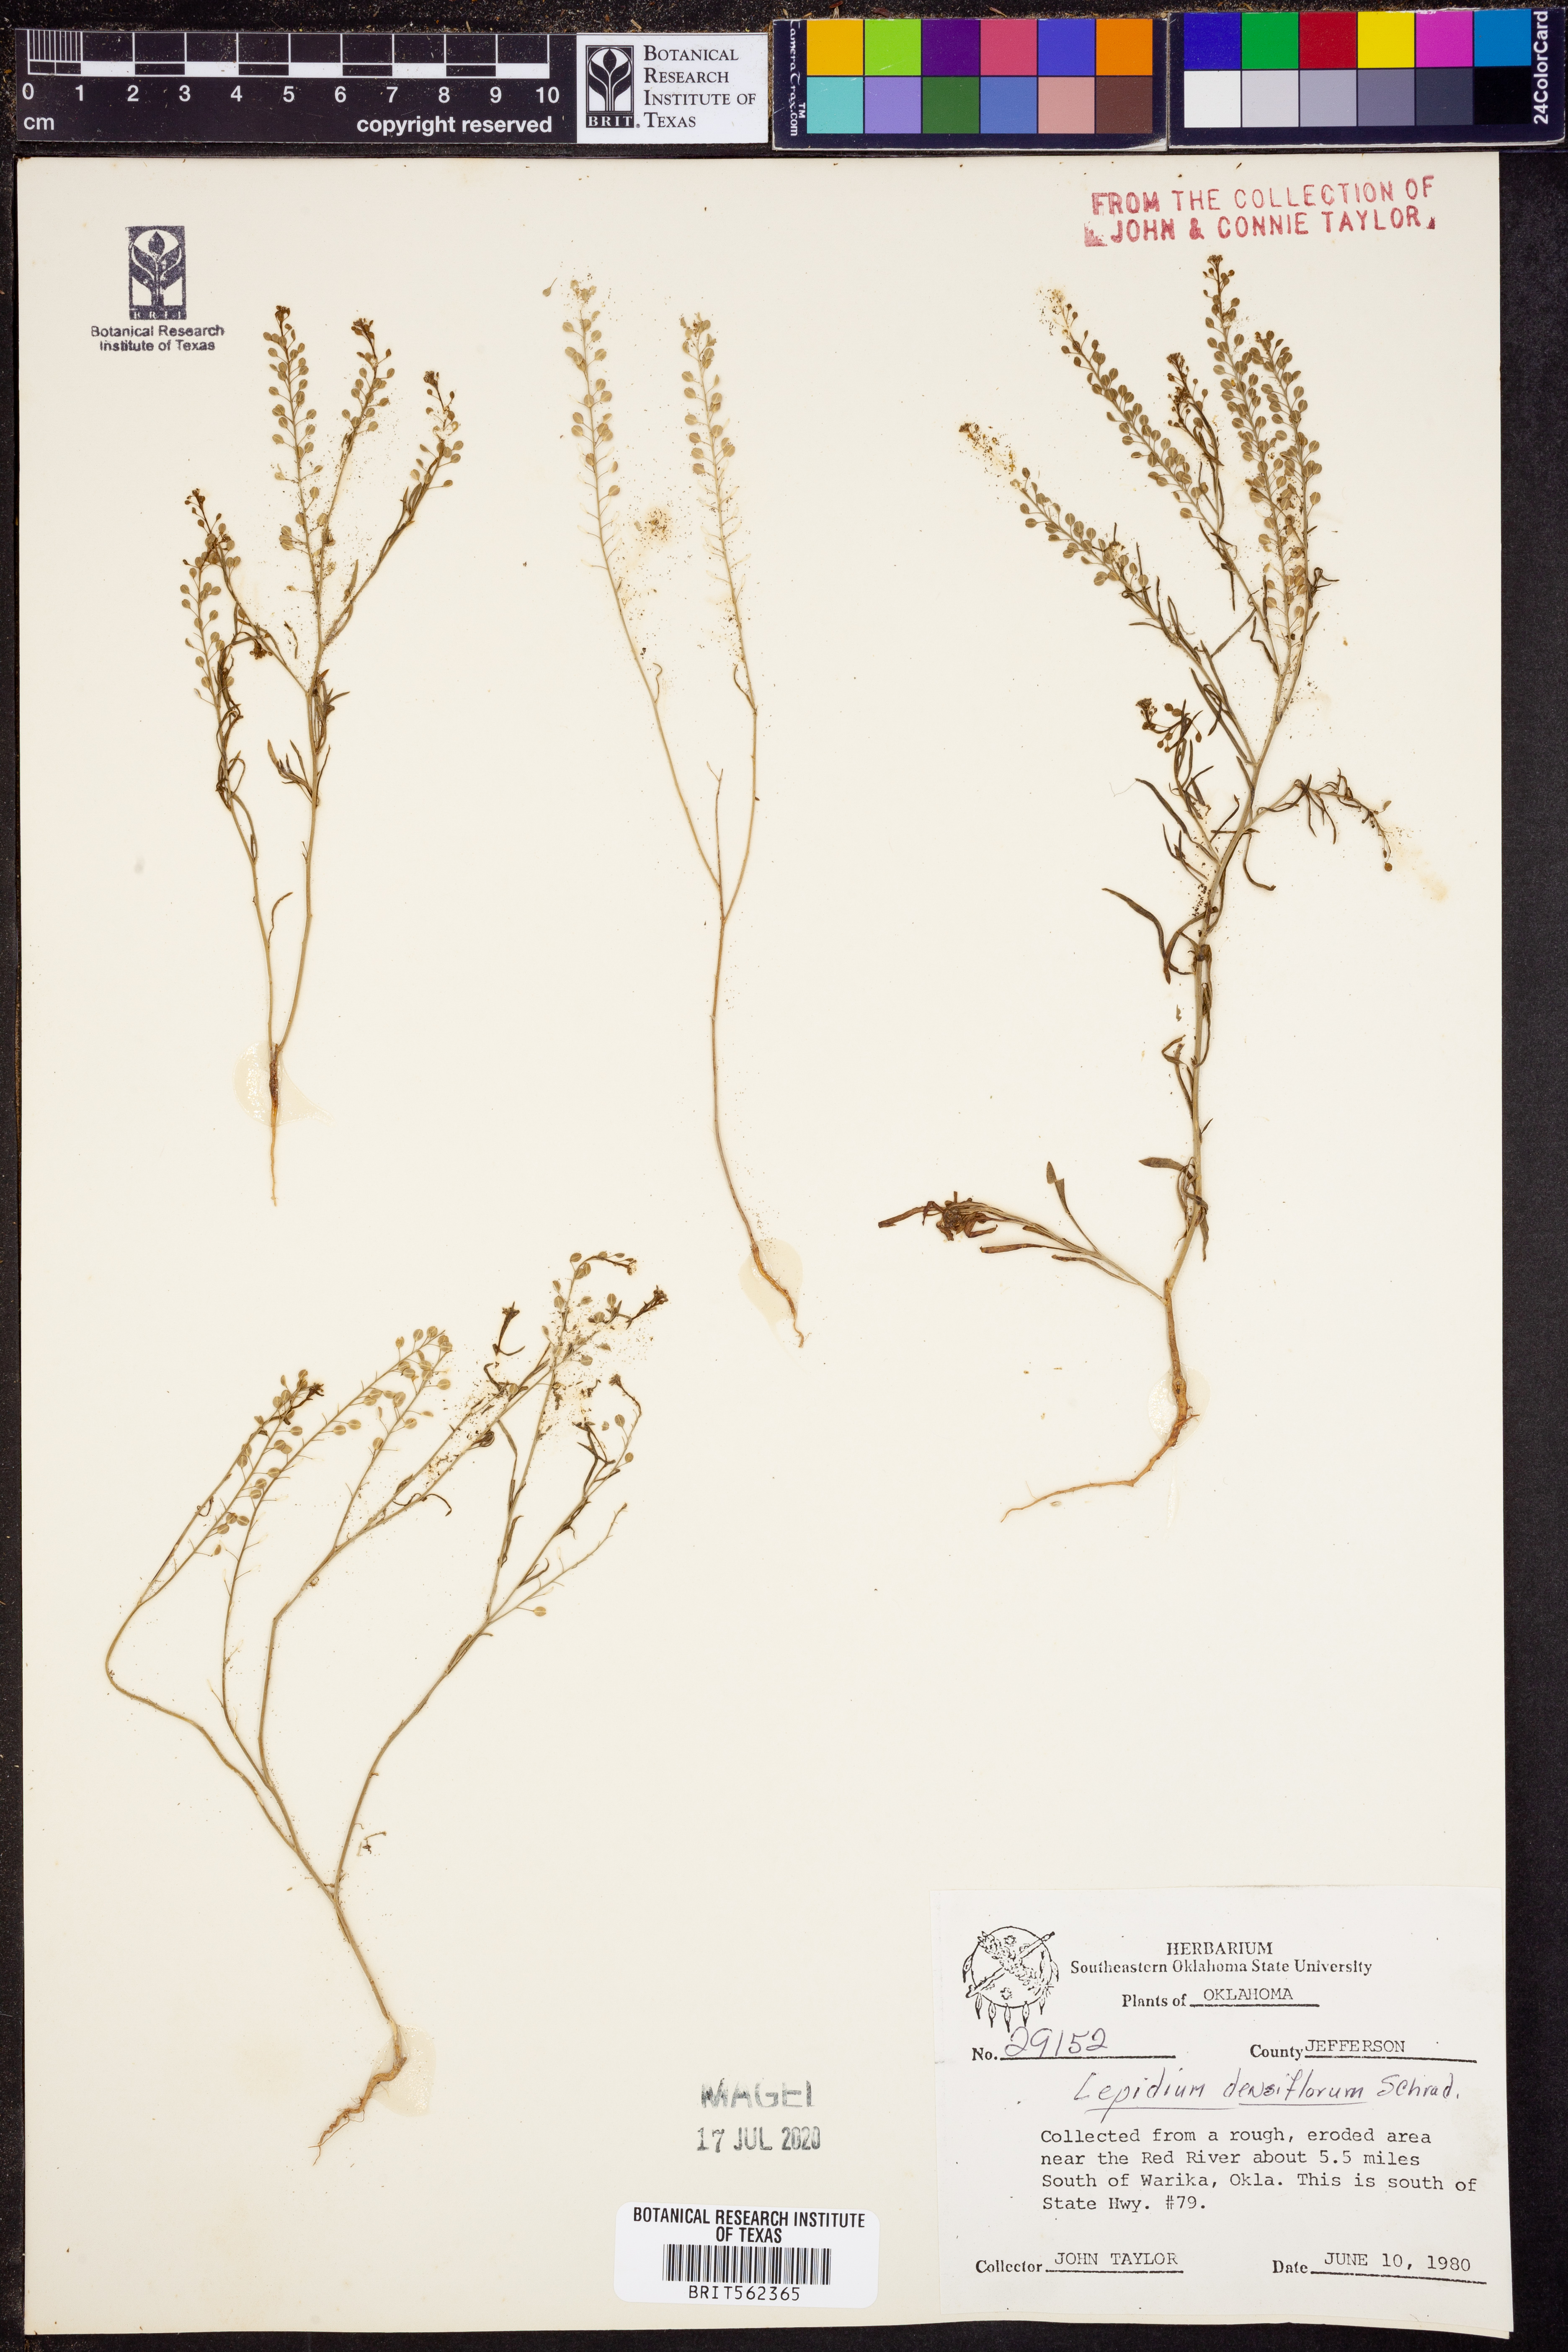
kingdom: Plantae
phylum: Tracheophyta
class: Magnoliopsida
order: Brassicales
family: Brassicaceae
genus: Lepidium
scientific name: Lepidium densiflorum
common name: Miner's pepperwort
